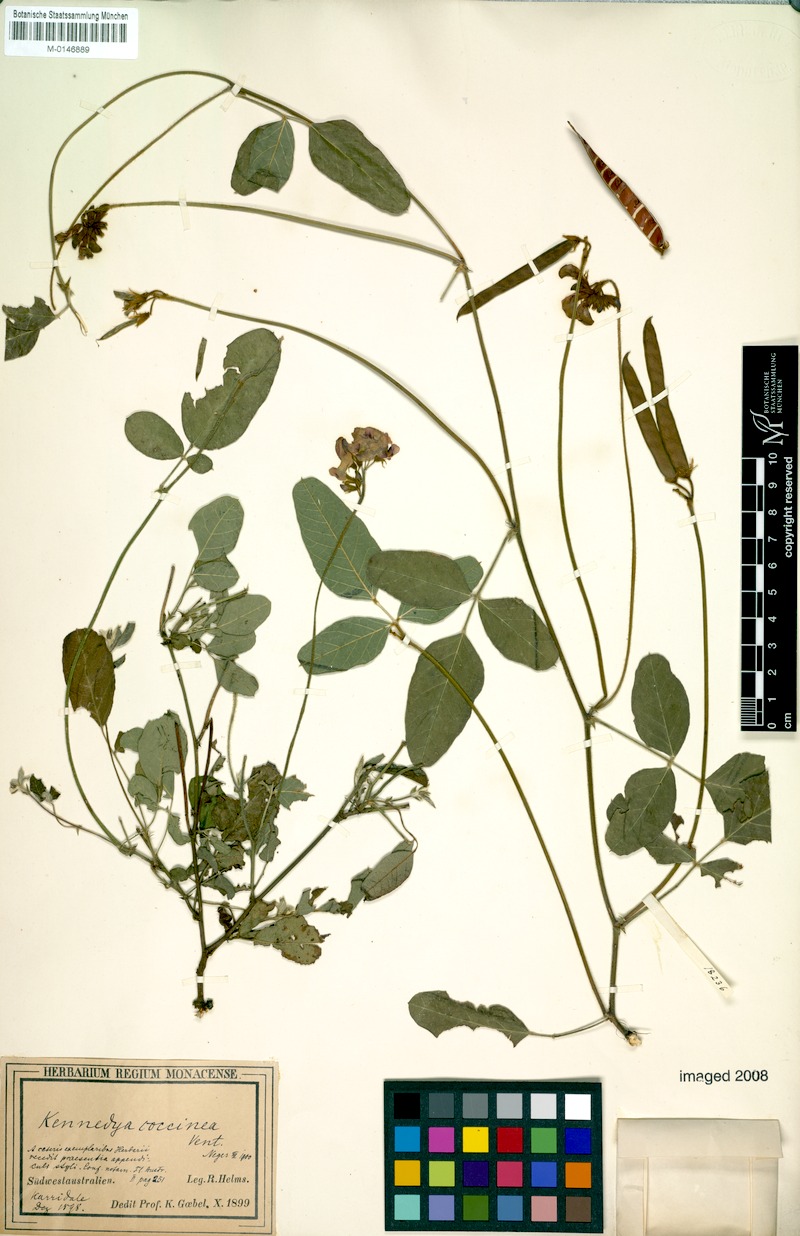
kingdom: Plantae
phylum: Tracheophyta
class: Magnoliopsida
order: Fabales
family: Fabaceae
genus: Kennedia
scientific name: Kennedia coccinea
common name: Coralvine
